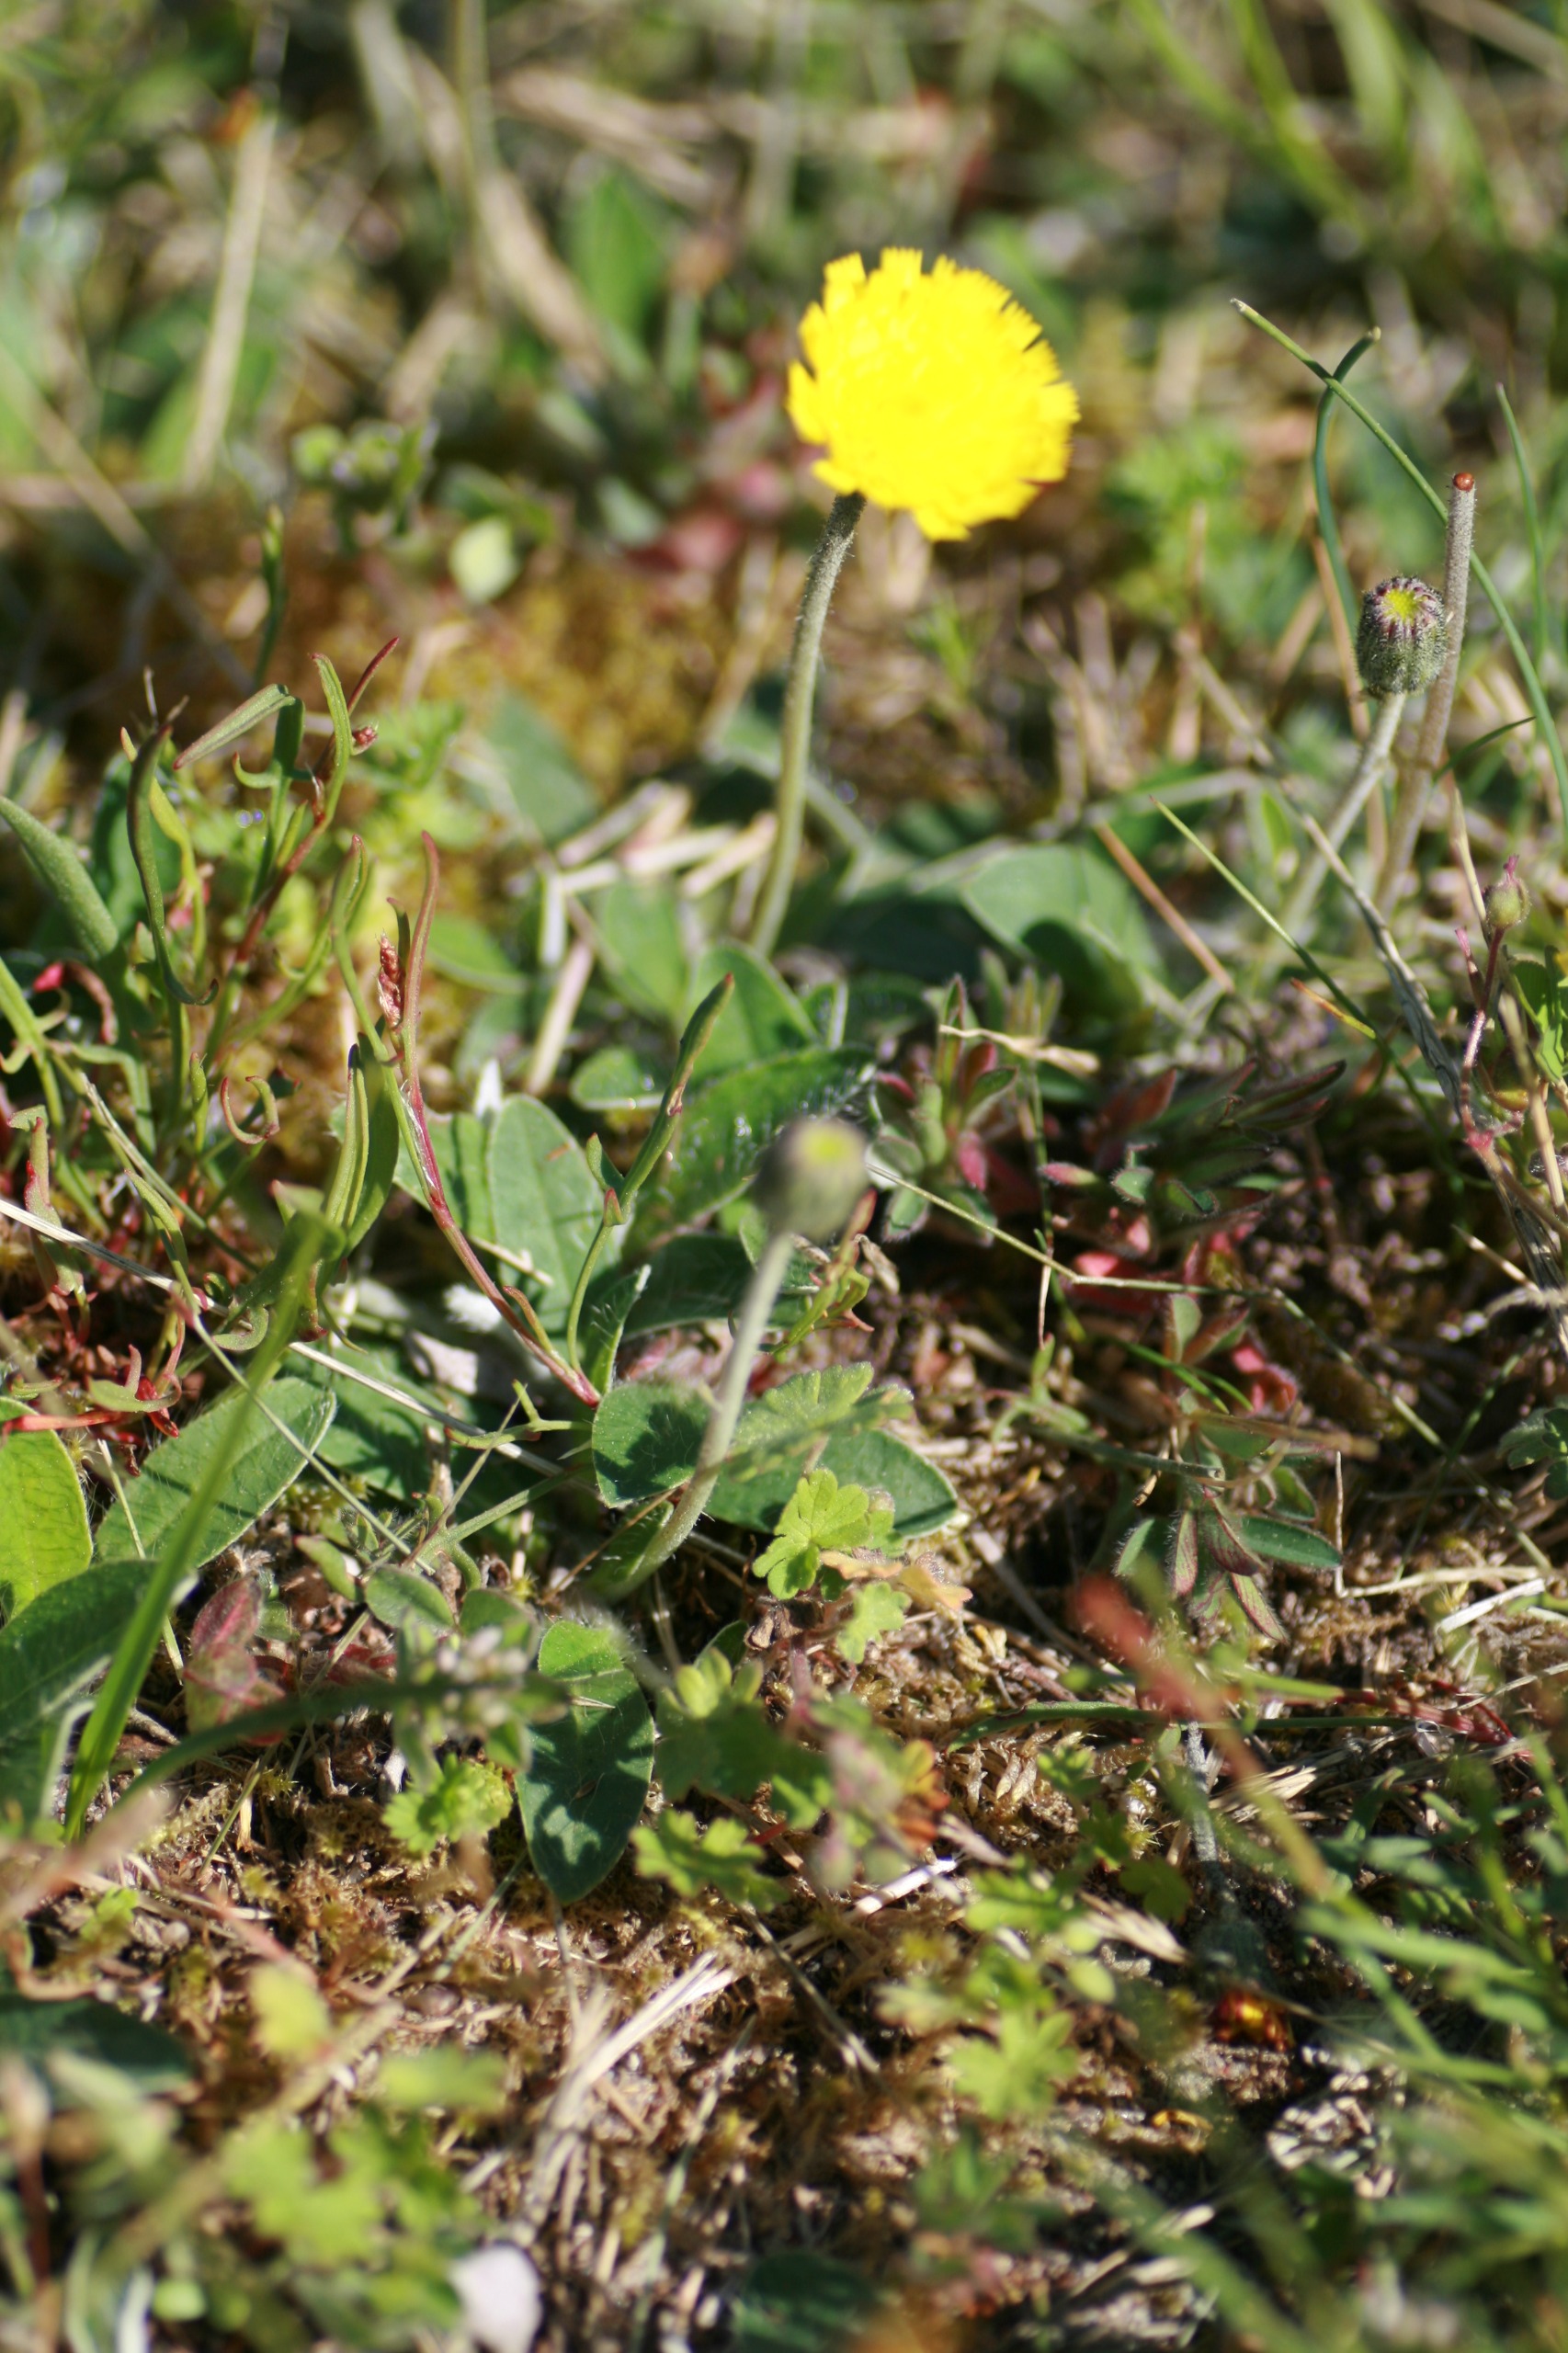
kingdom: Plantae
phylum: Tracheophyta
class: Magnoliopsida
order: Asterales
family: Asteraceae
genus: Pilosella
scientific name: Pilosella officinarum
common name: Håret høgeurt
